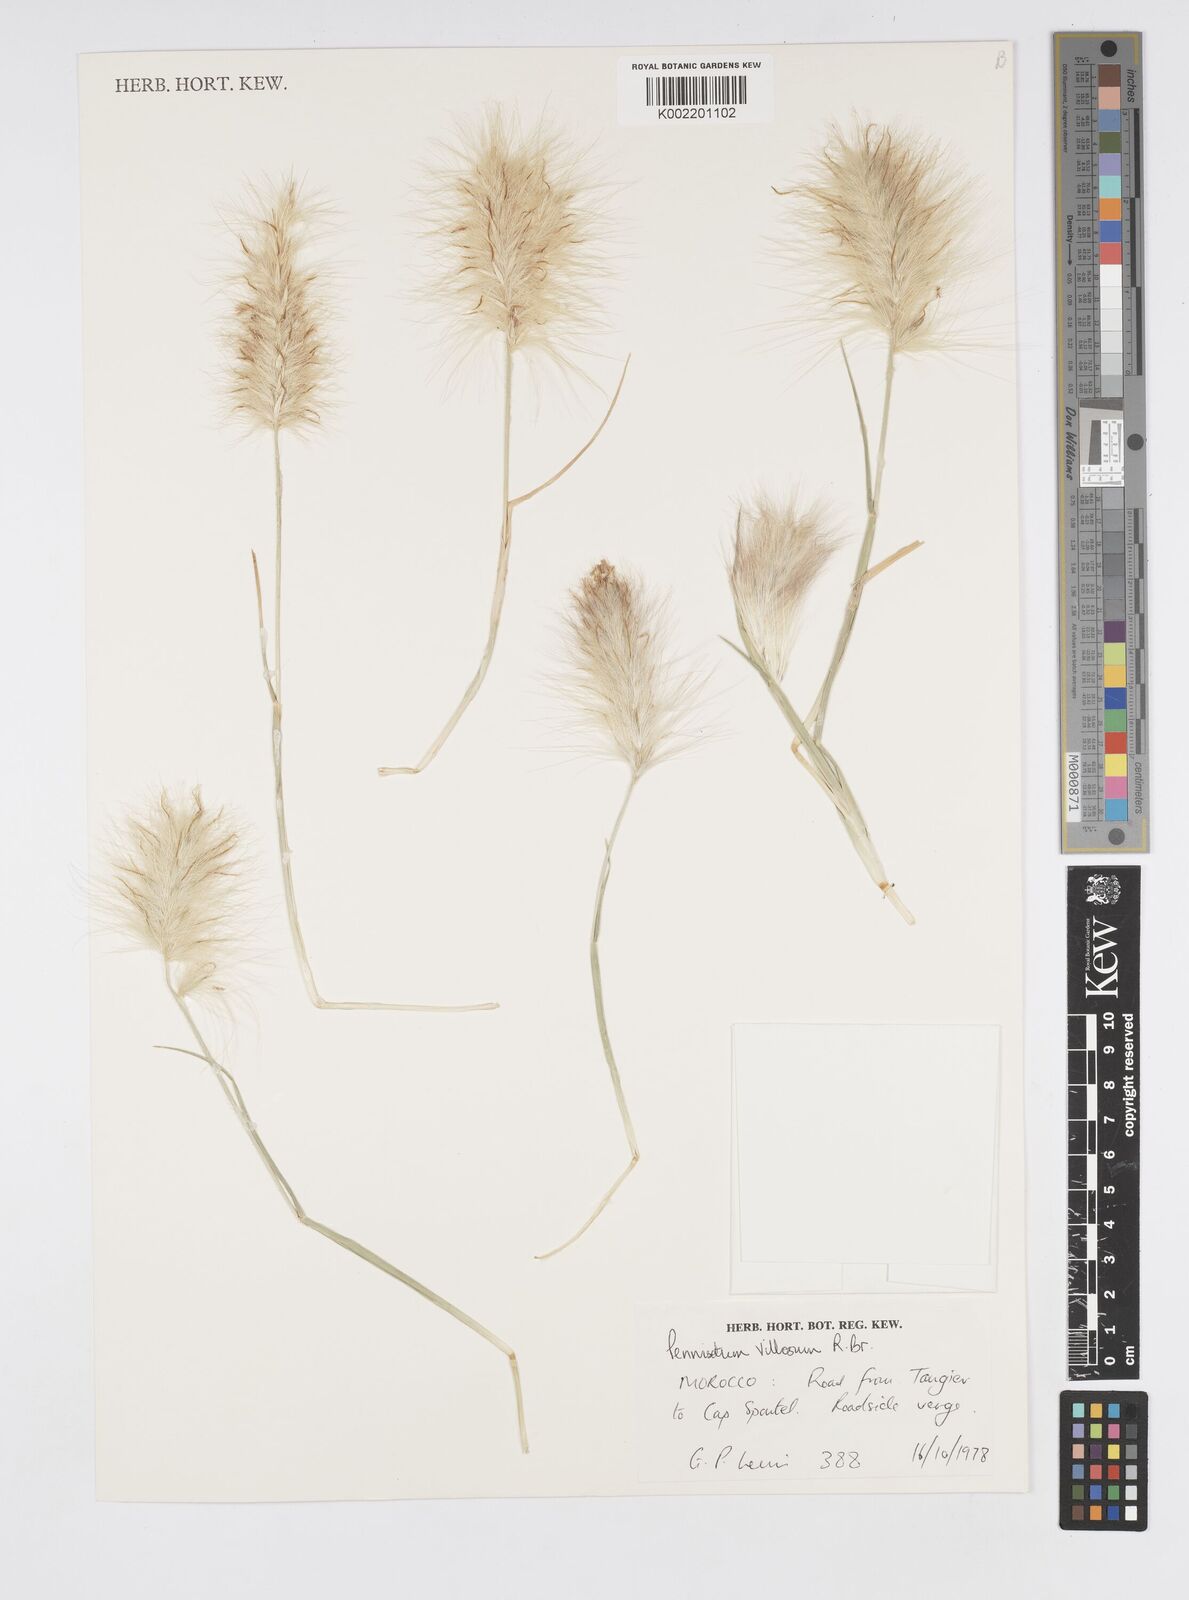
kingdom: Plantae
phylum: Tracheophyta
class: Liliopsida
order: Poales
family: Poaceae
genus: Cenchrus
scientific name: Cenchrus longisetus
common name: Feathertop
